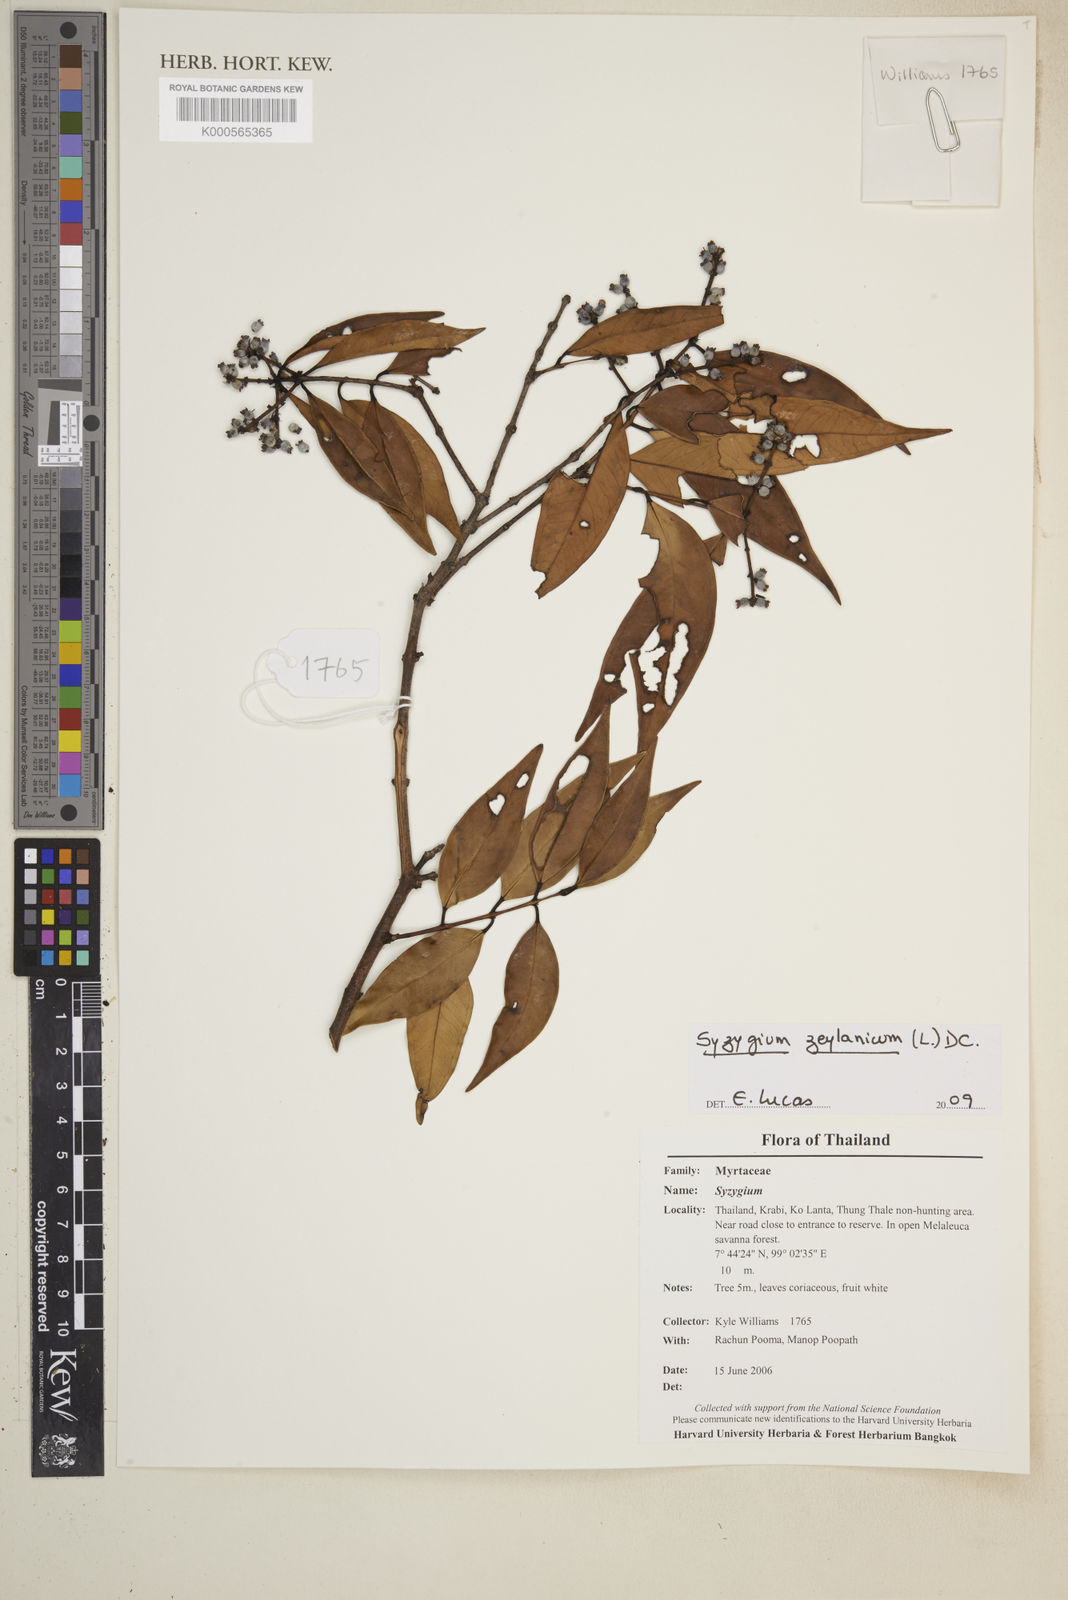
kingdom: Plantae
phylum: Tracheophyta
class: Magnoliopsida
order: Myrtales
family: Myrtaceae
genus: Syzygium
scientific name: Syzygium zeylanicum
